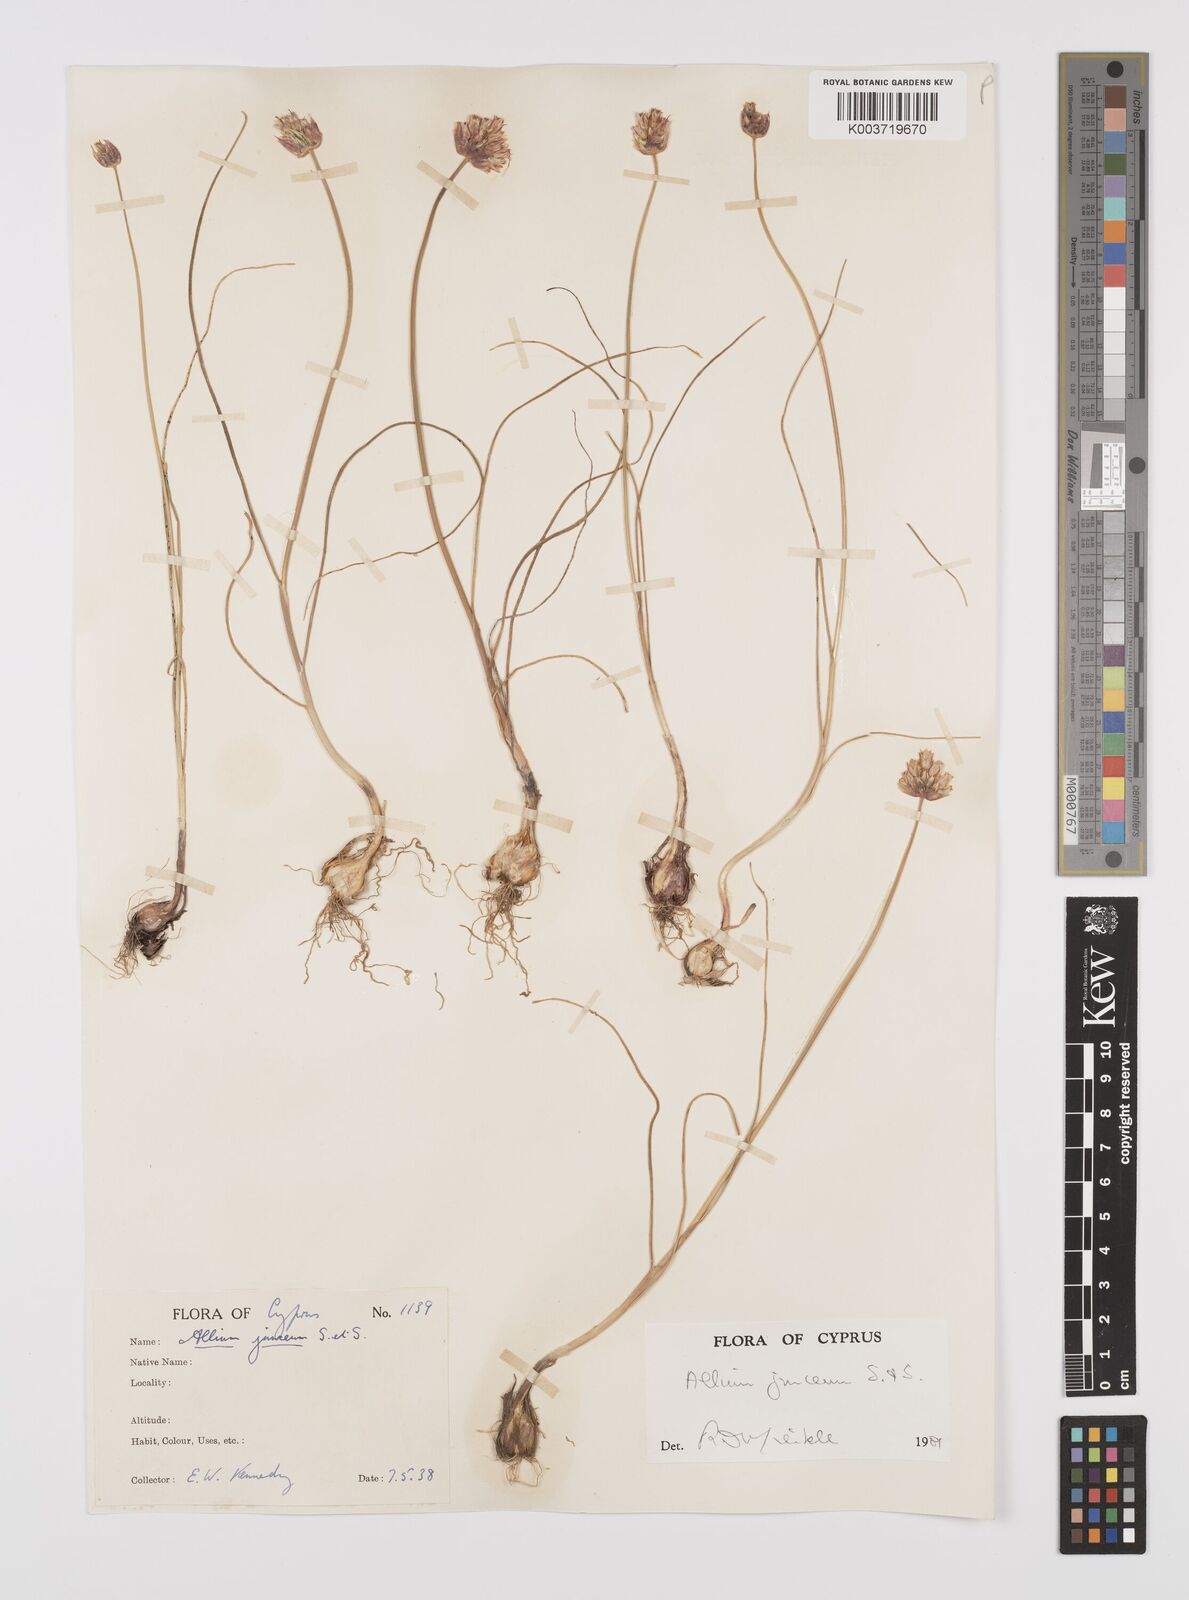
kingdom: Plantae
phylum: Tracheophyta
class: Liliopsida
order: Asparagales
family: Amaryllidaceae
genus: Allium
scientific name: Allium junceum
